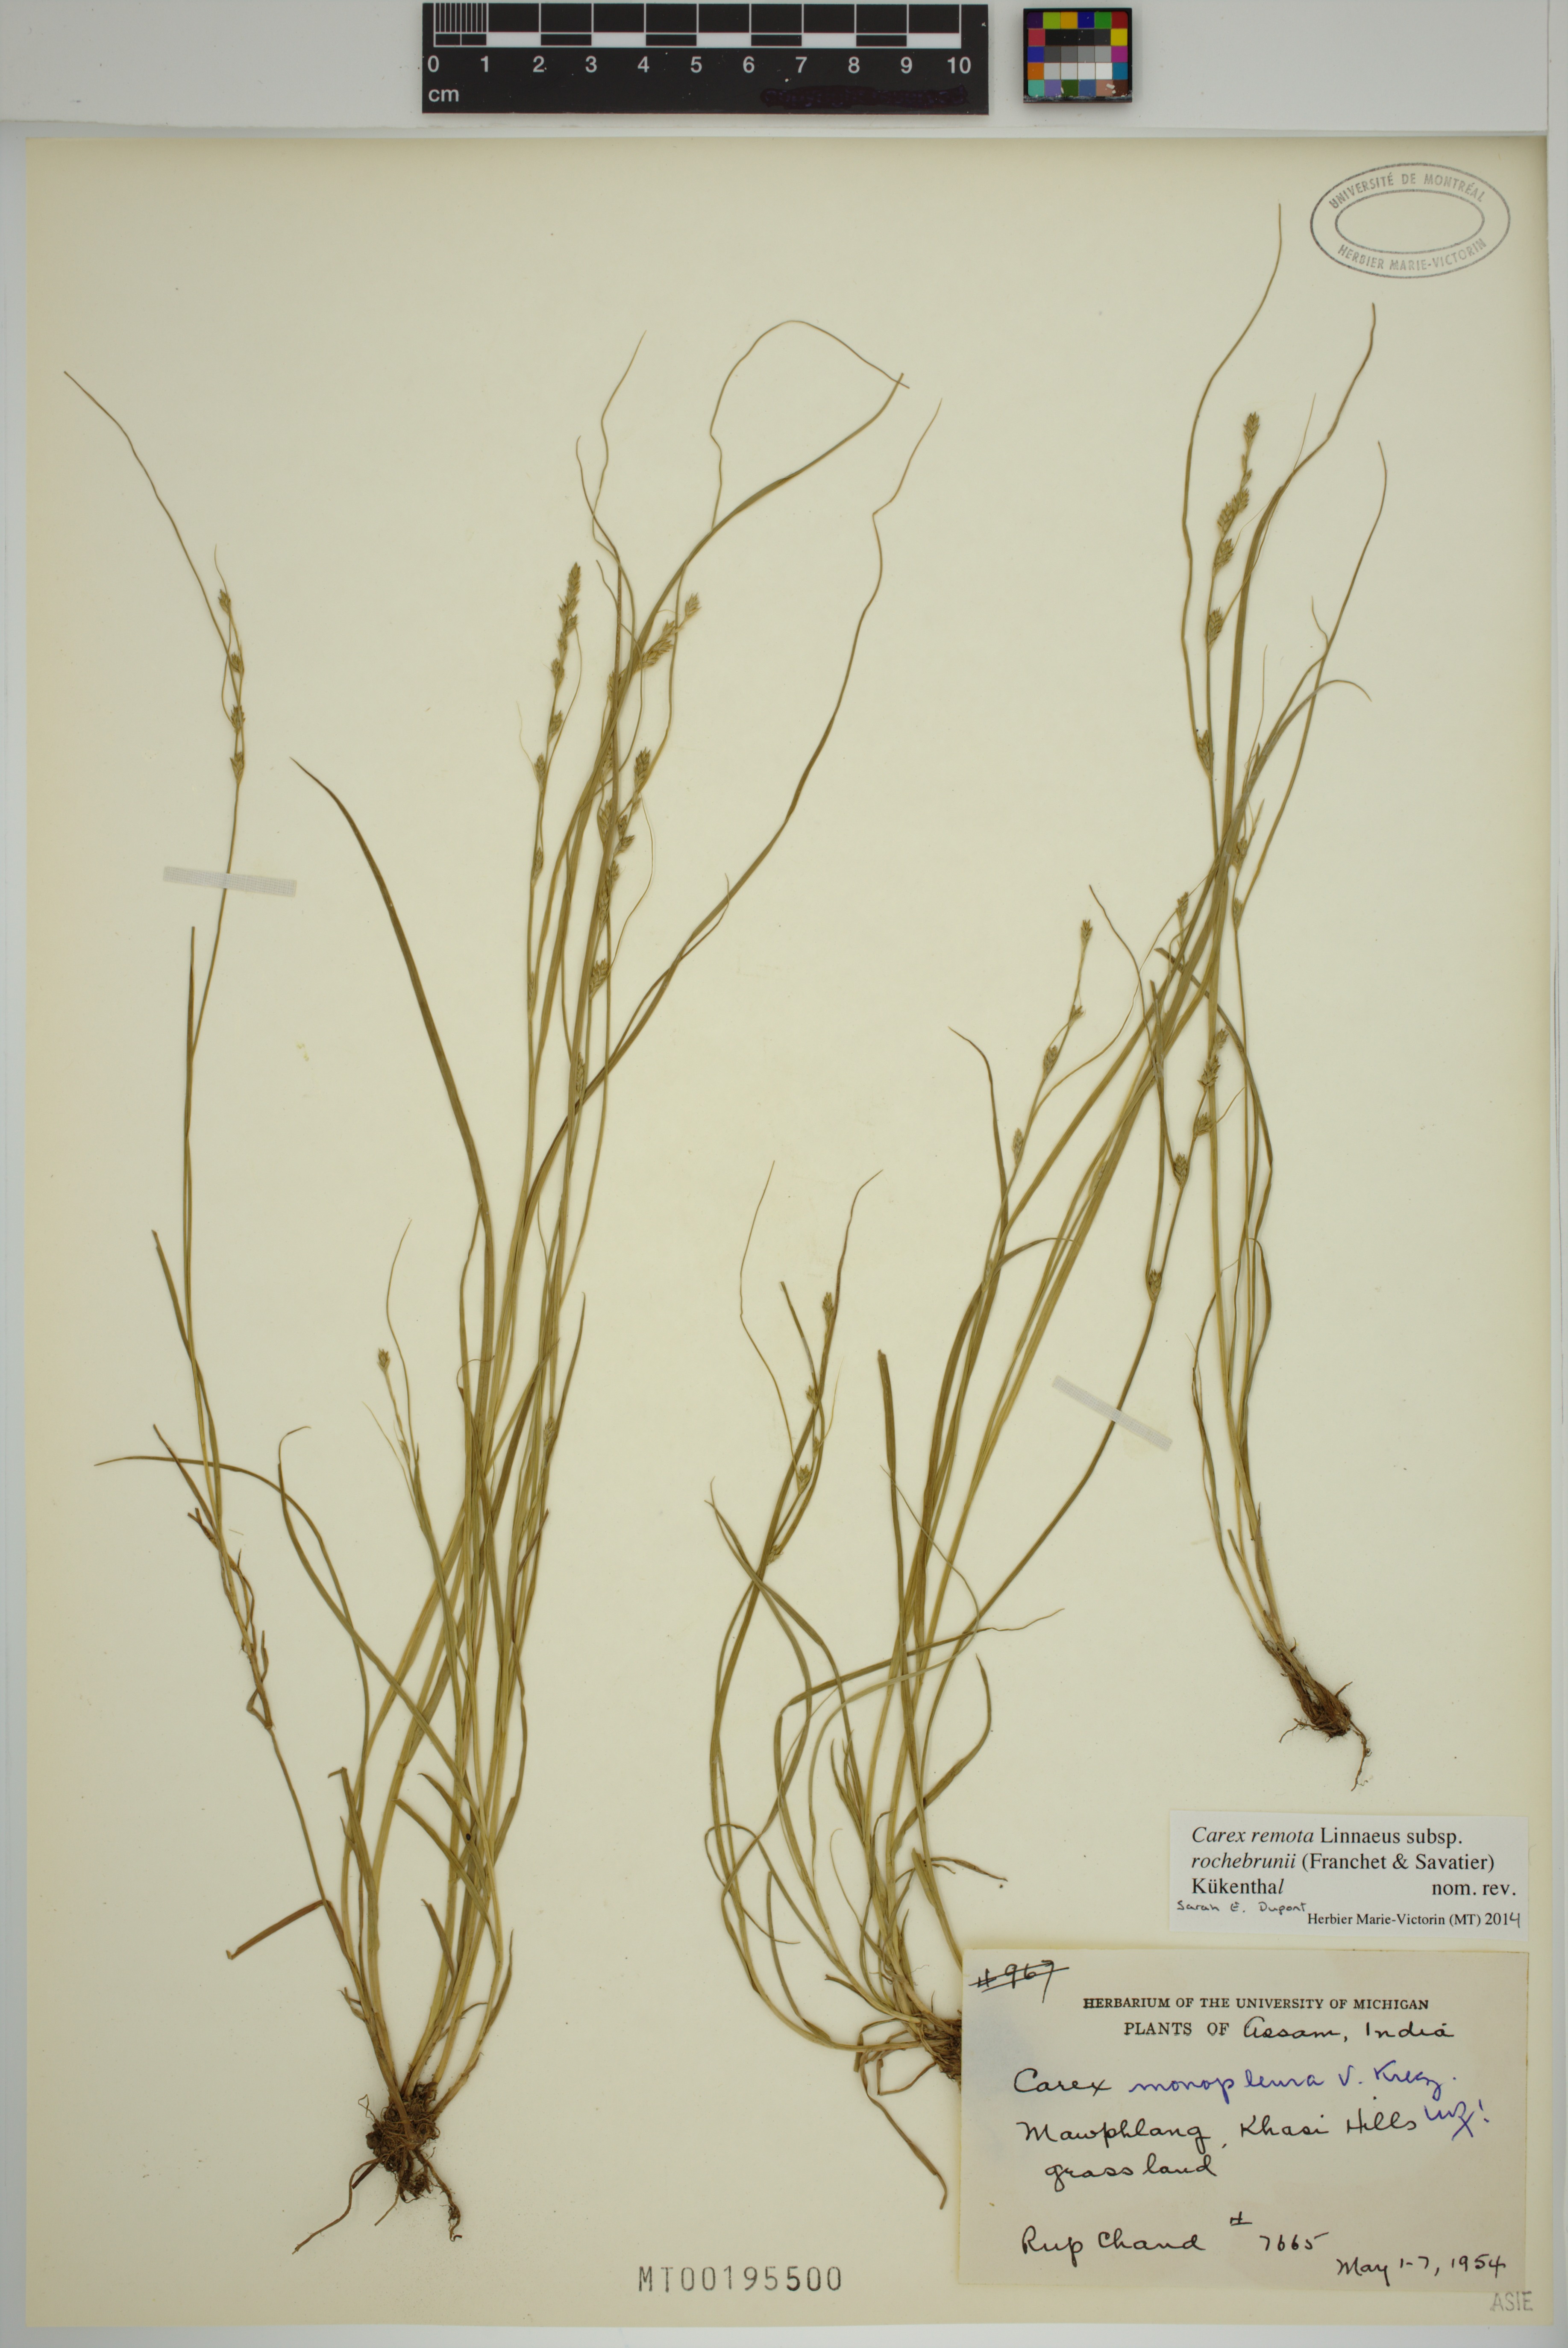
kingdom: Plantae
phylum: Tracheophyta
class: Liliopsida
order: Poales
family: Cyperaceae
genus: Carex
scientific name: Carex rochebrunei
